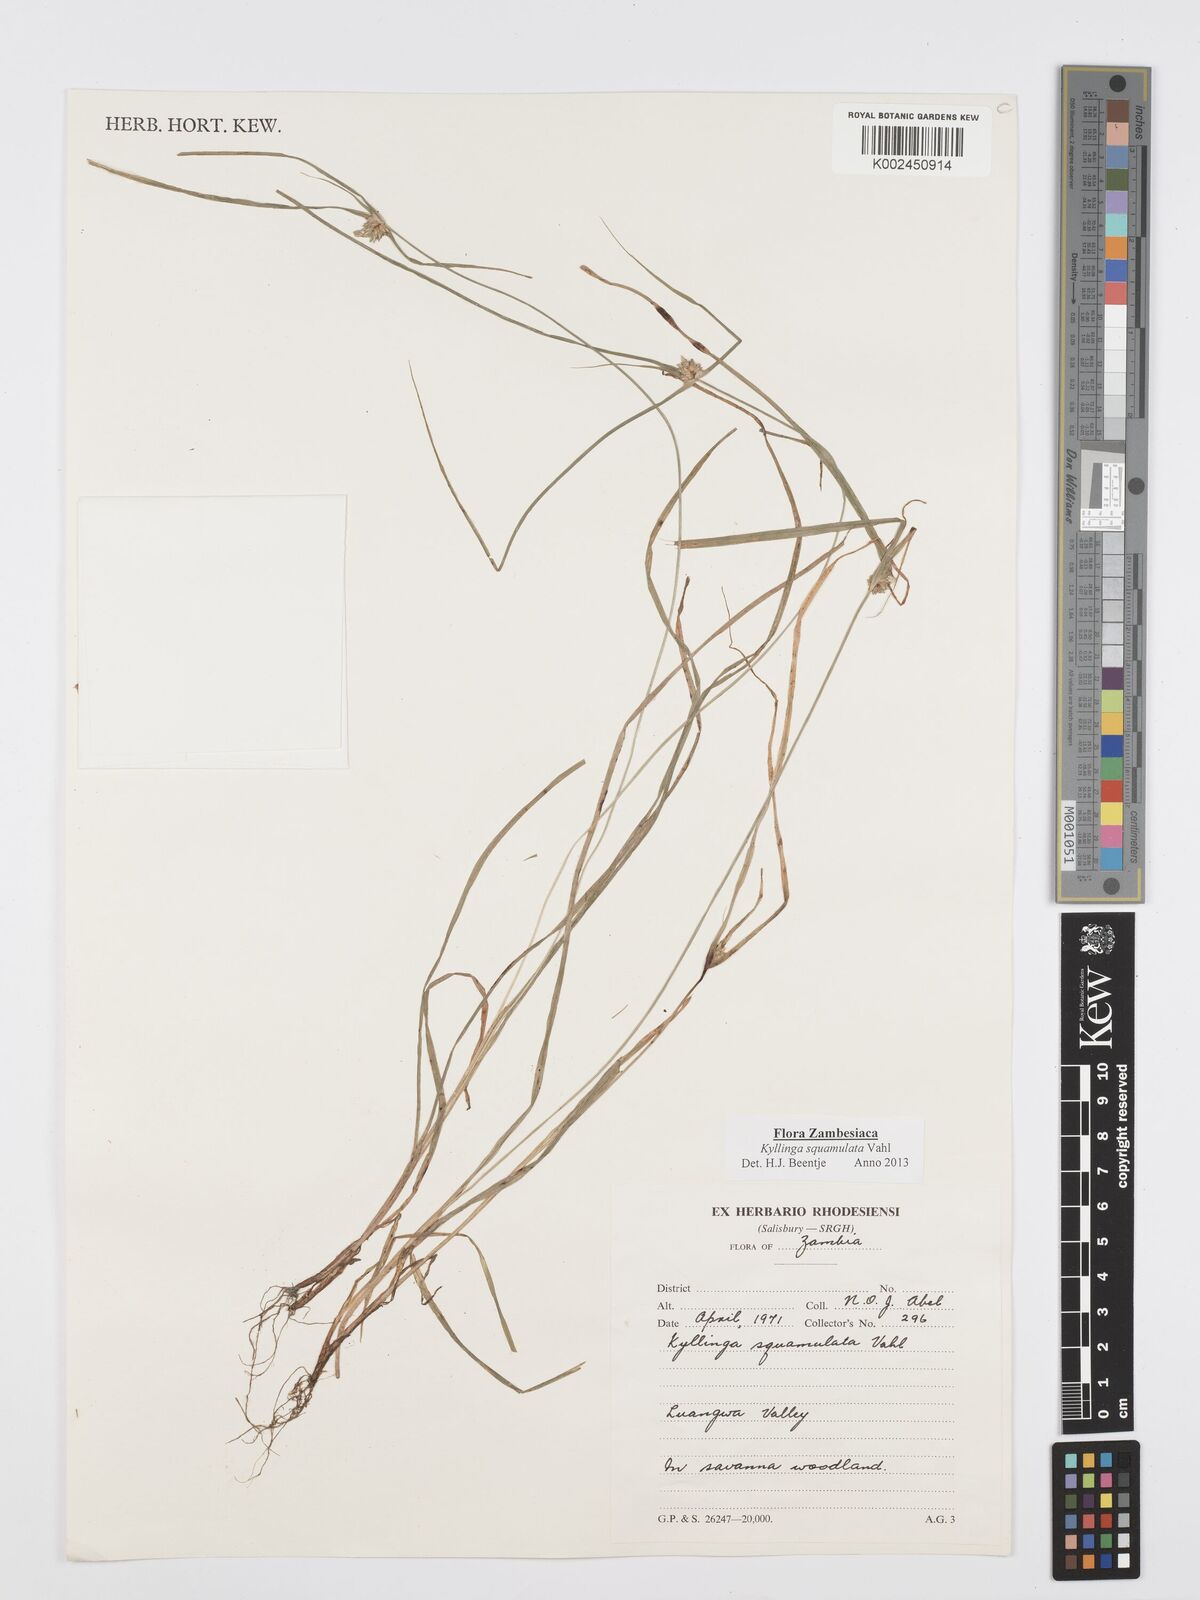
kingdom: Plantae
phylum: Tracheophyta
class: Liliopsida
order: Poales
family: Cyperaceae
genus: Cyperus
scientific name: Cyperus distans
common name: Slender cyperus
